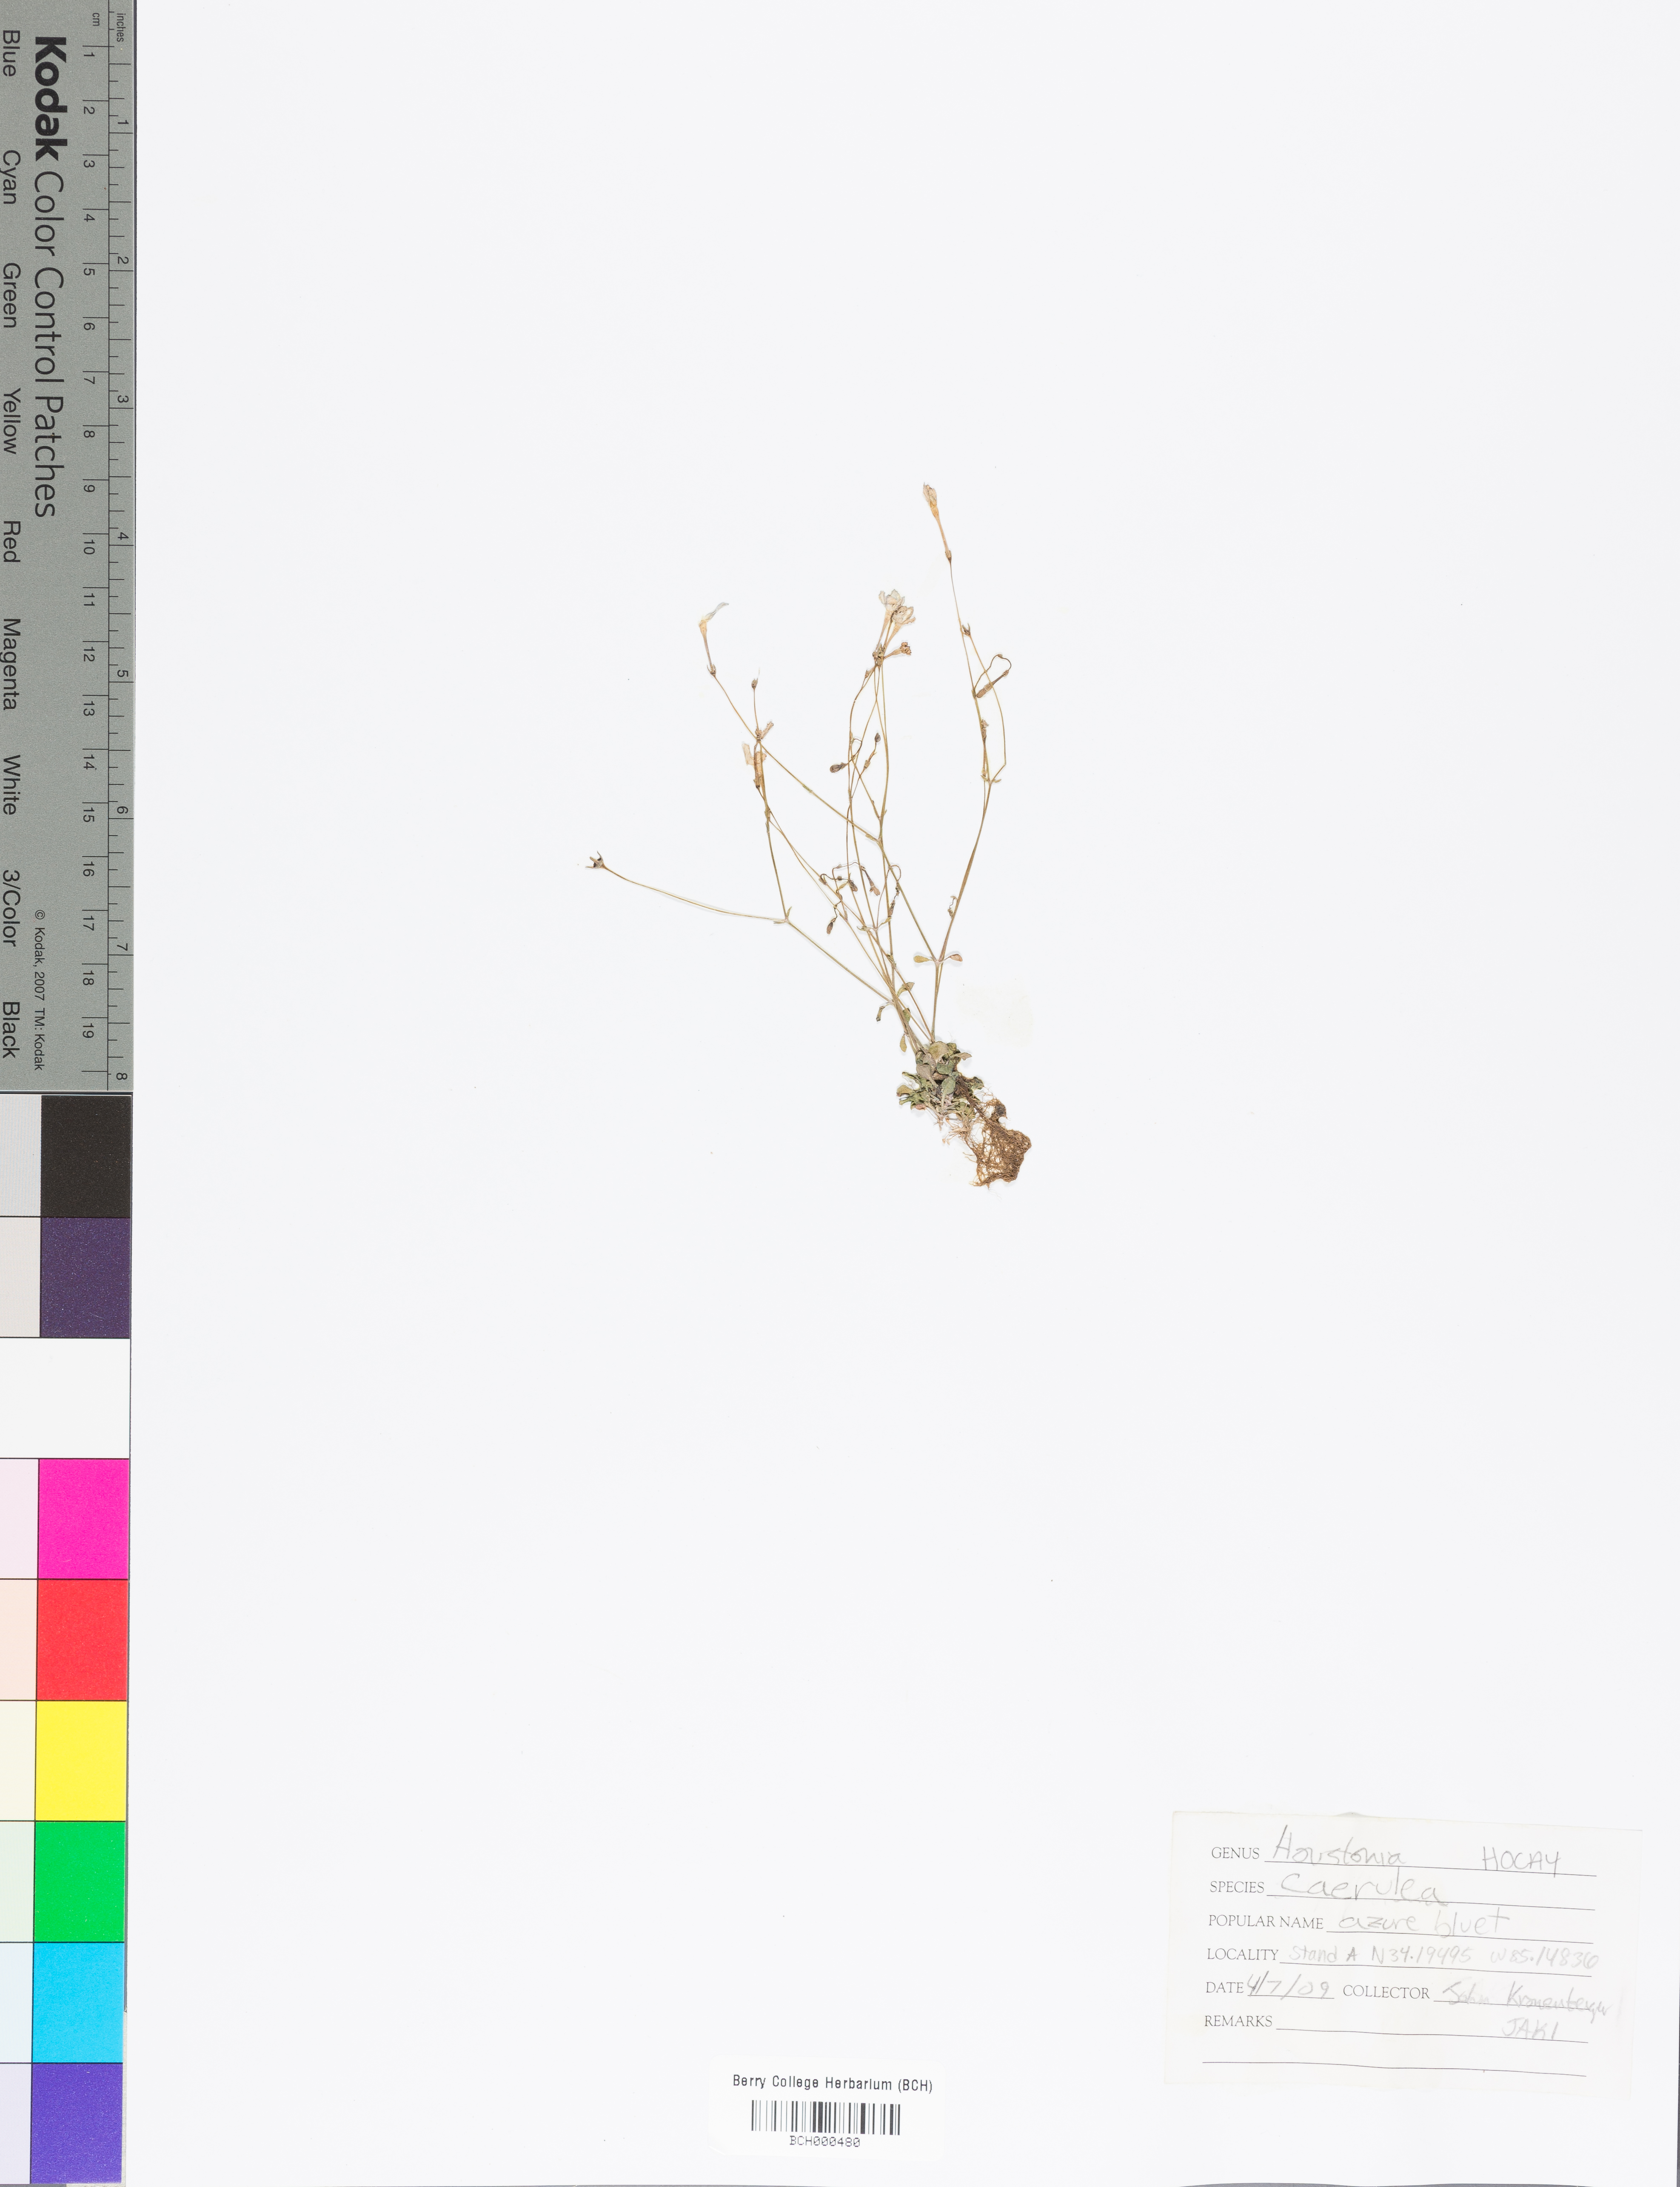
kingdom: Plantae
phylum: Tracheophyta
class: Magnoliopsida
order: Gentianales
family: Rubiaceae
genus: Houstonia
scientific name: Houstonia caerulea
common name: Bluets
